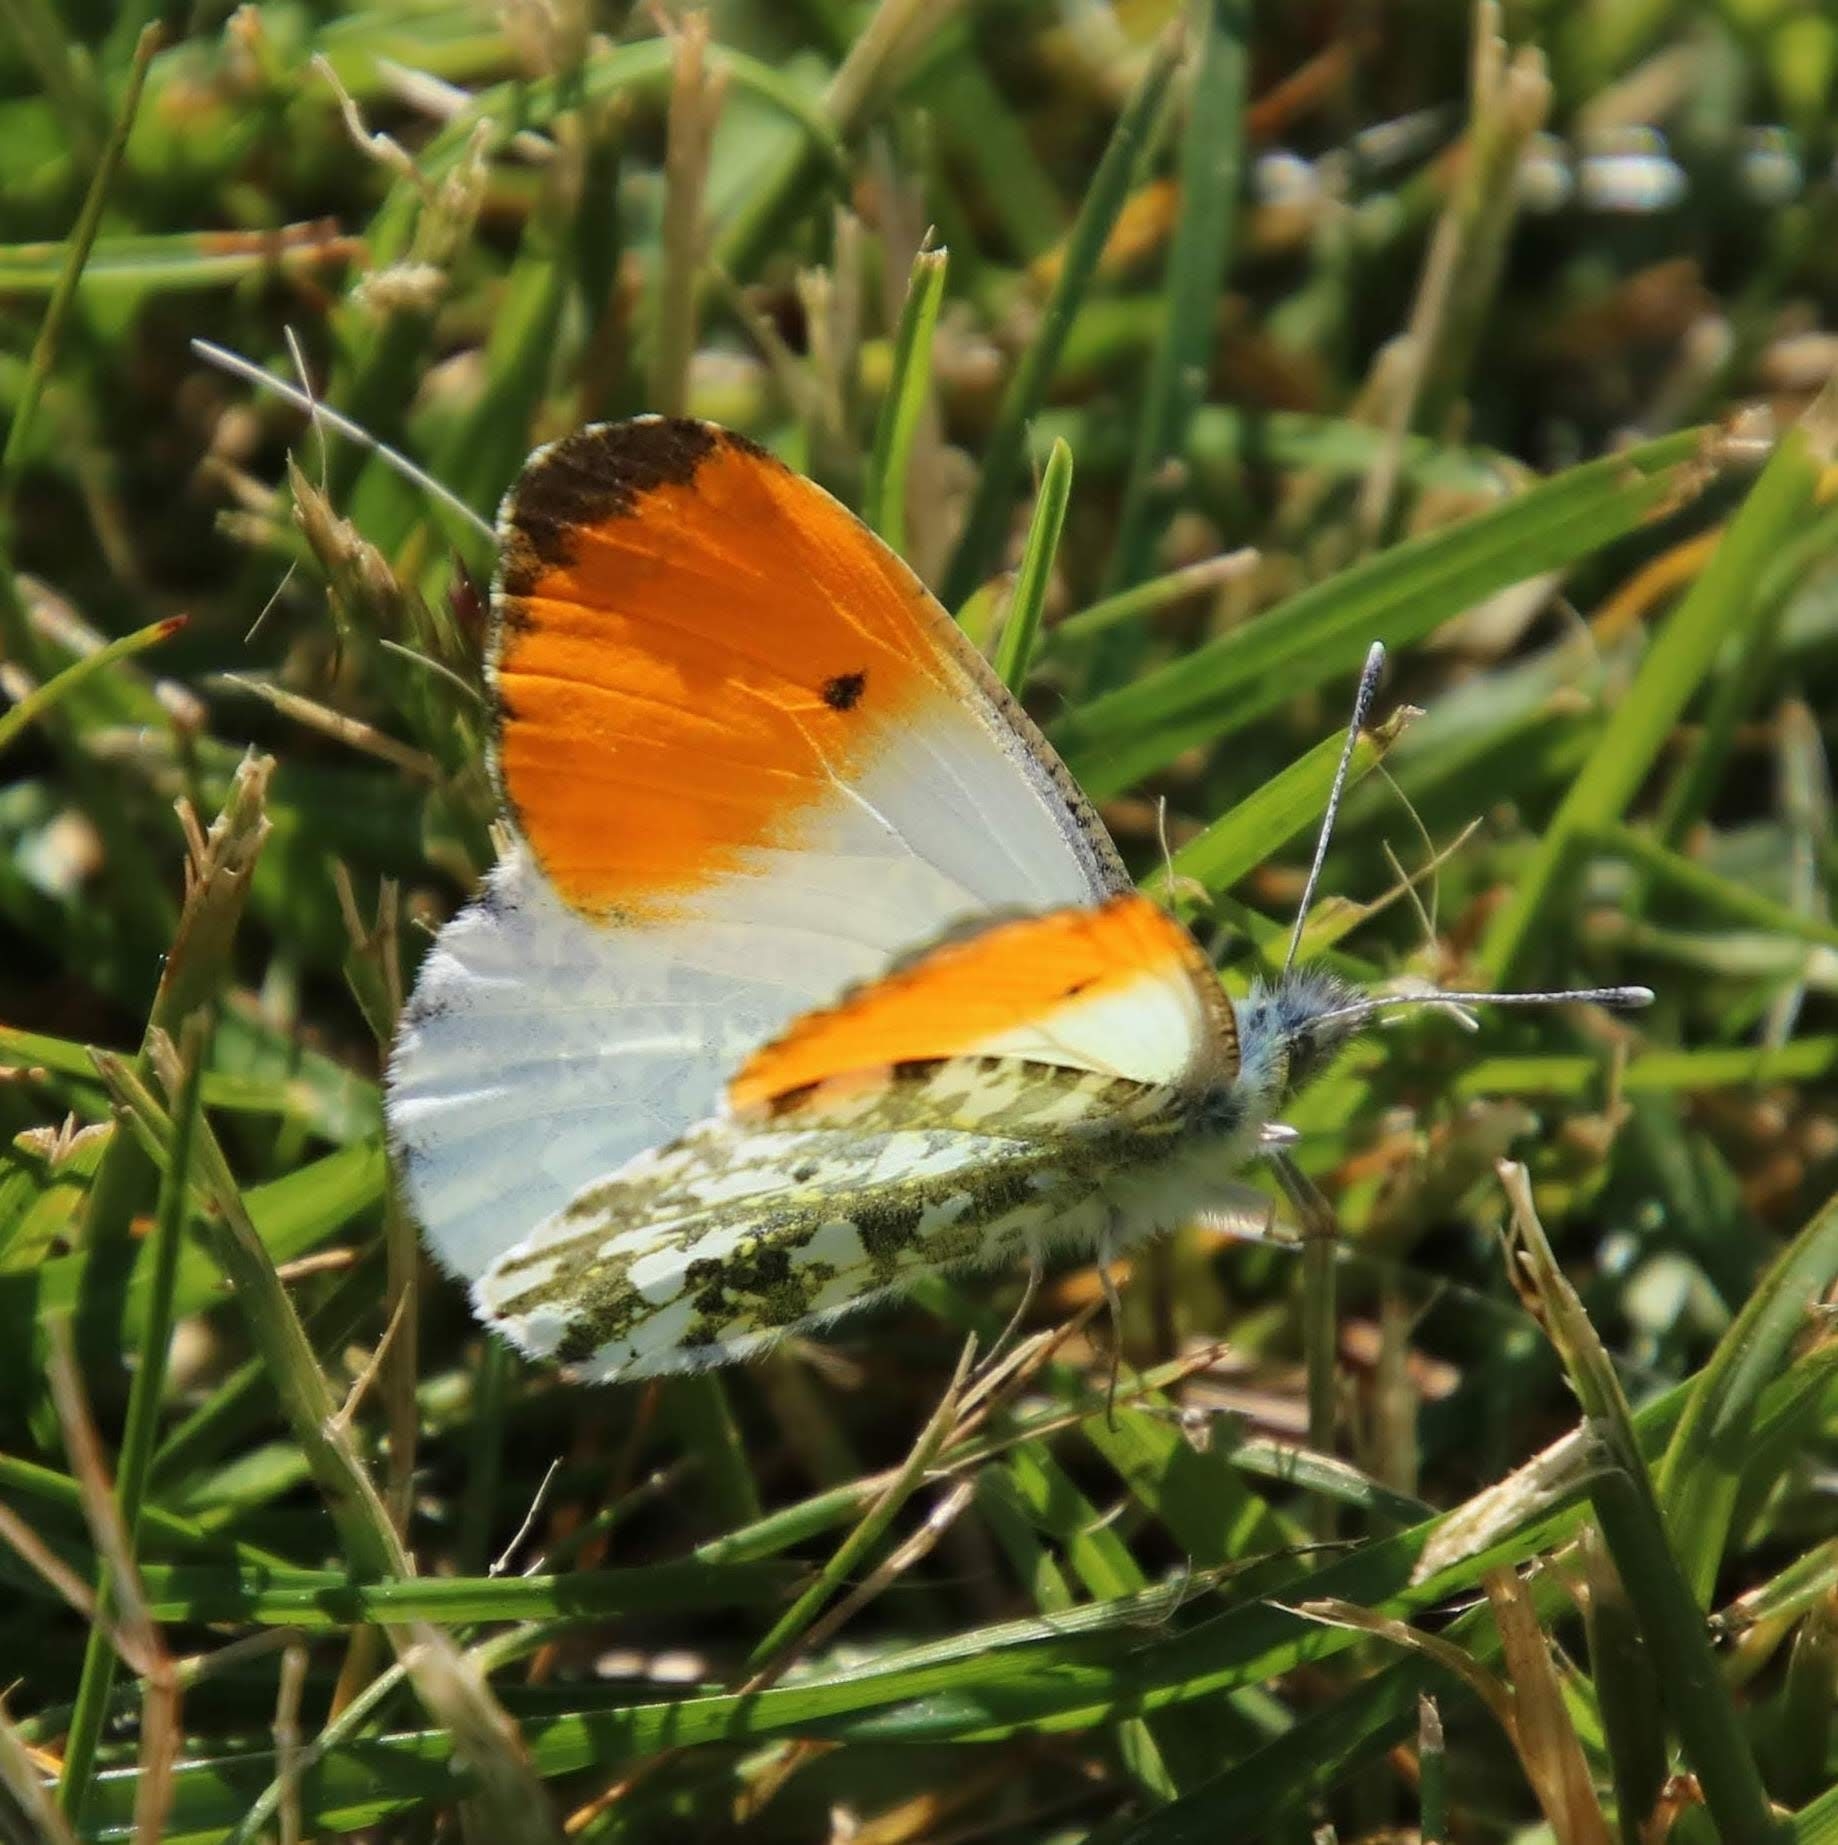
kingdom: Animalia
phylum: Arthropoda
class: Insecta
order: Lepidoptera
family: Pieridae
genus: Anthocharis
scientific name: Anthocharis cardamines
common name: Aurora
